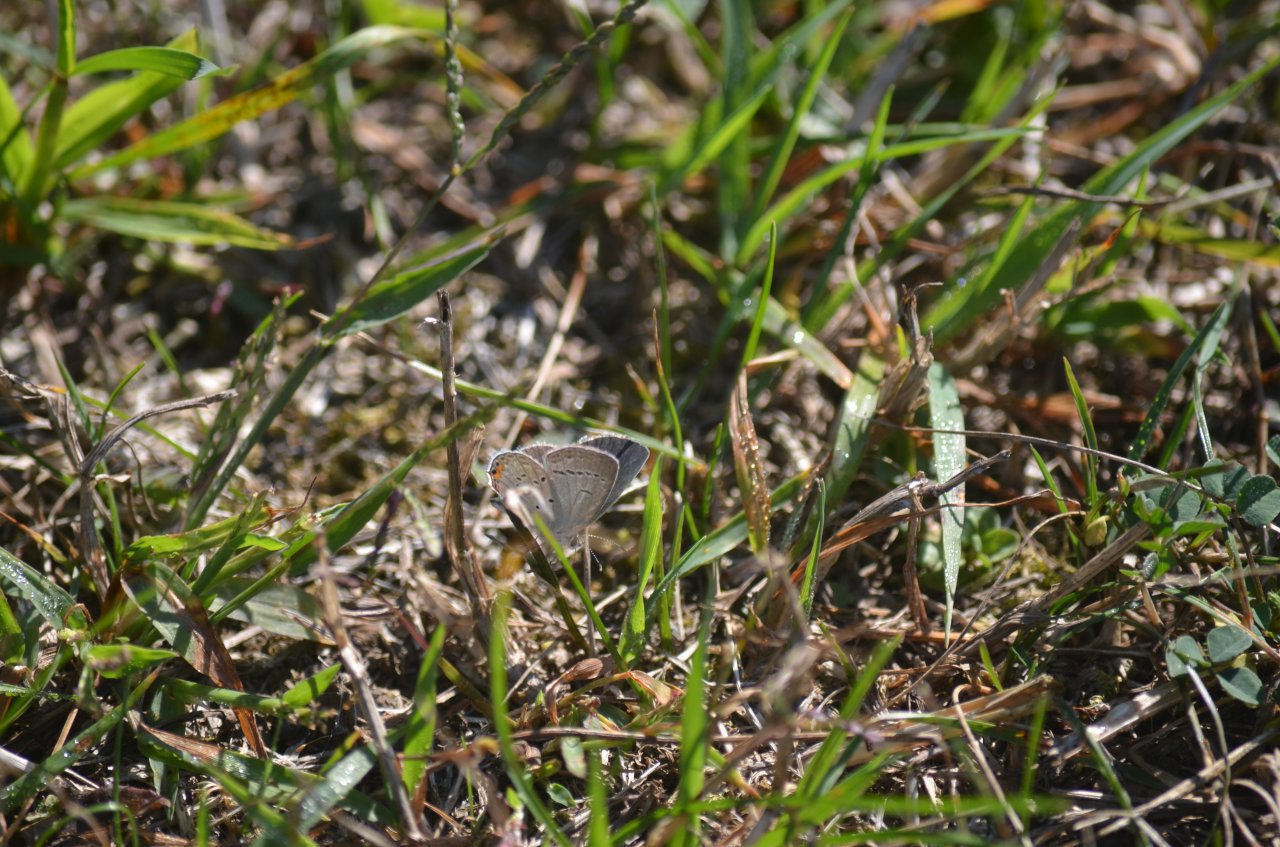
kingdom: Animalia
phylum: Arthropoda
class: Insecta
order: Lepidoptera
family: Lycaenidae
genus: Elkalyce
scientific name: Elkalyce comyntas
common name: Eastern Tailed-Blue
